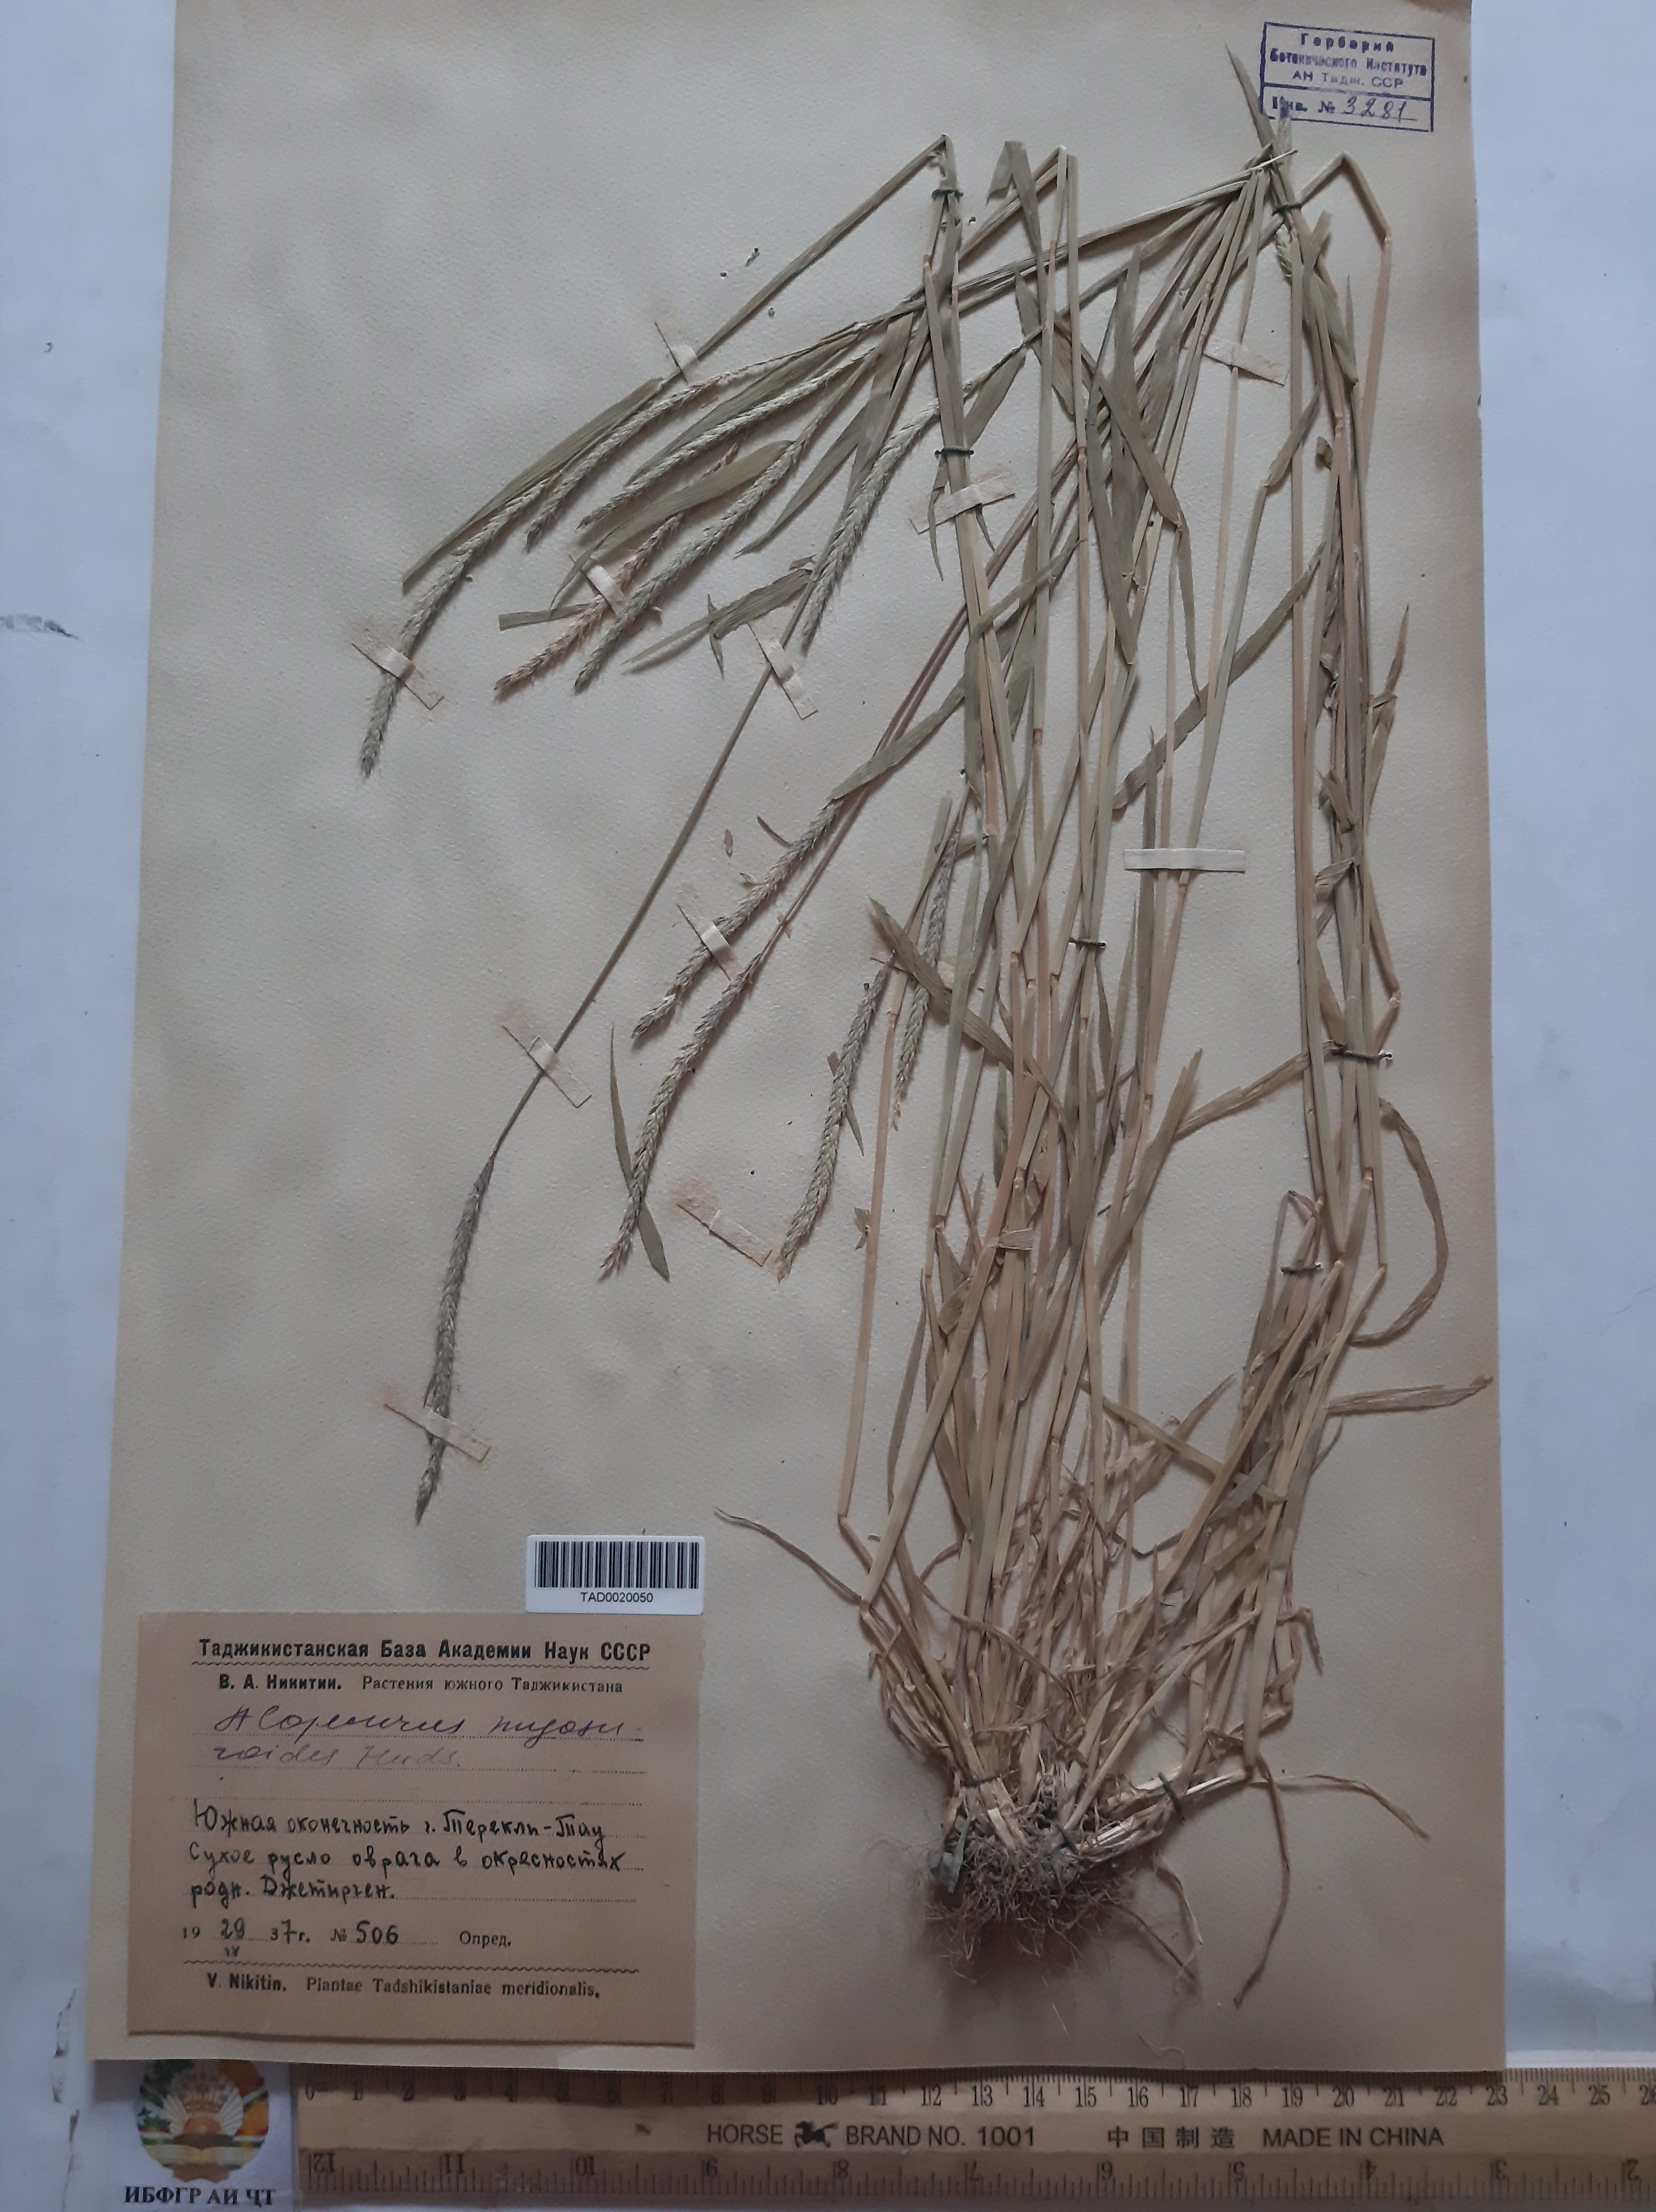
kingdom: Plantae
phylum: Tracheophyta
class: Liliopsida
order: Poales
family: Poaceae
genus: Alopecurus
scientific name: Alopecurus myosuroides
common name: Black-grass
